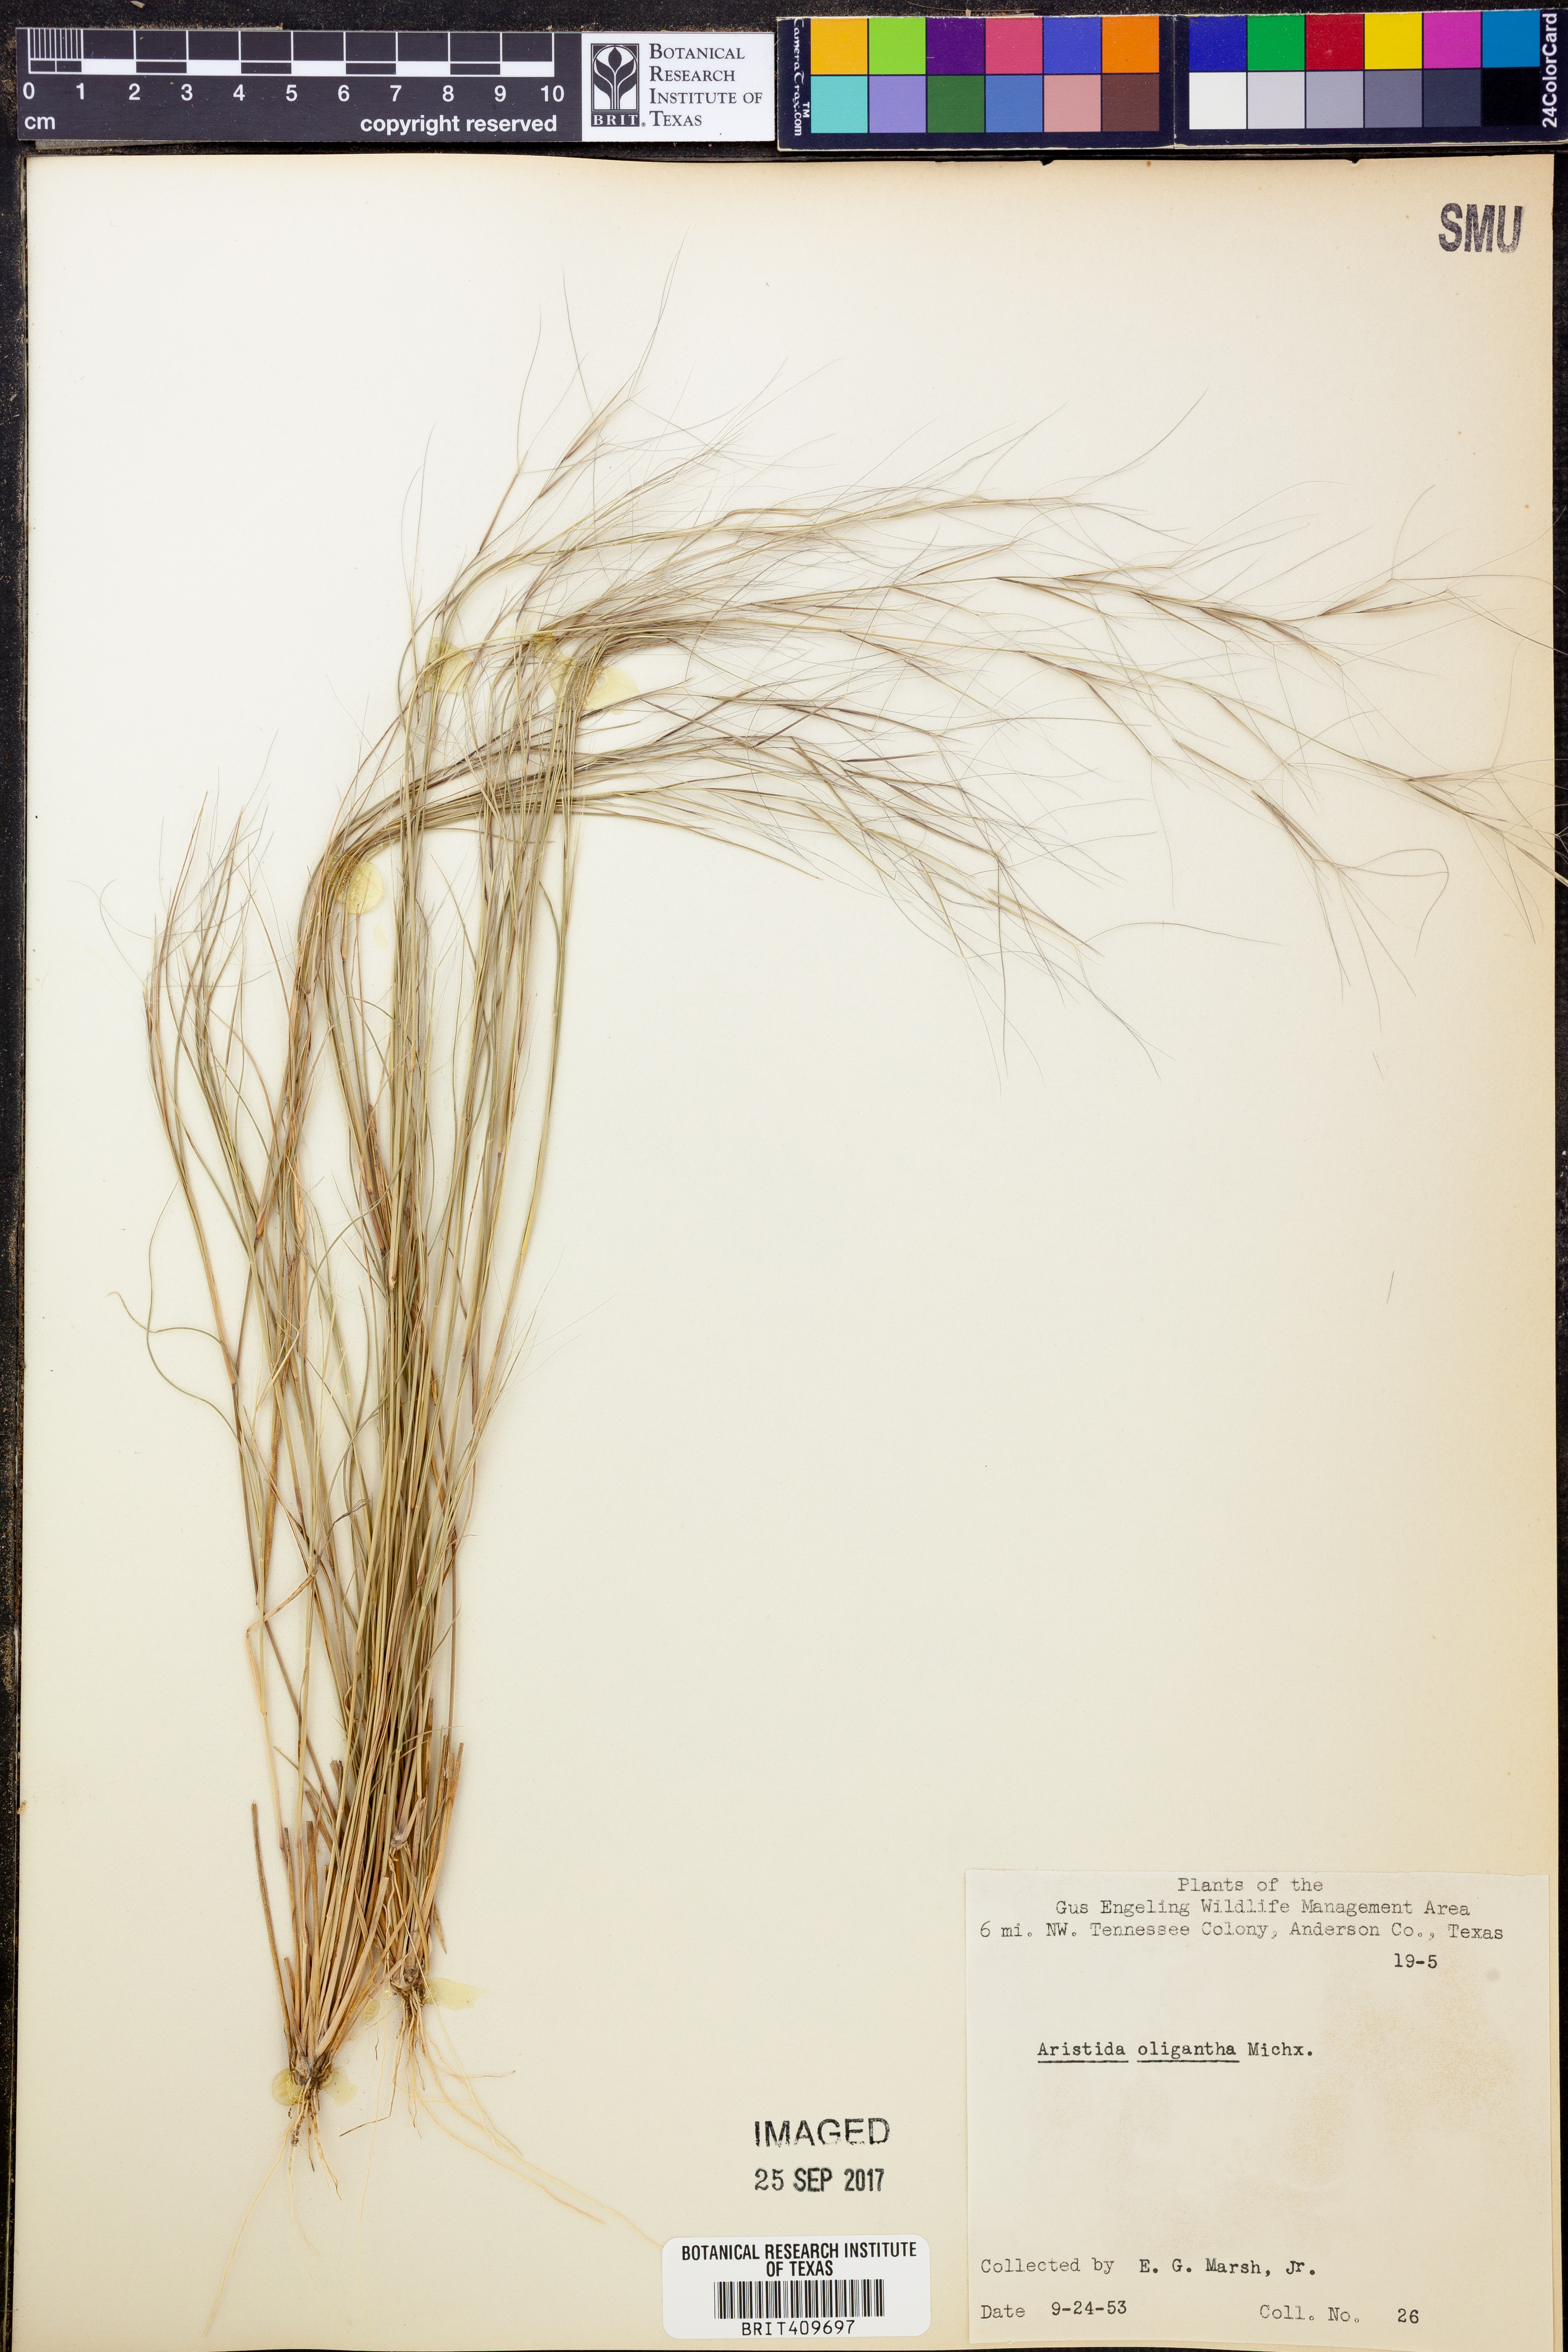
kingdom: Plantae
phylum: Tracheophyta
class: Liliopsida
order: Poales
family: Poaceae
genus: Aristida
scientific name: Aristida oligantha
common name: Few-flowered aristida
